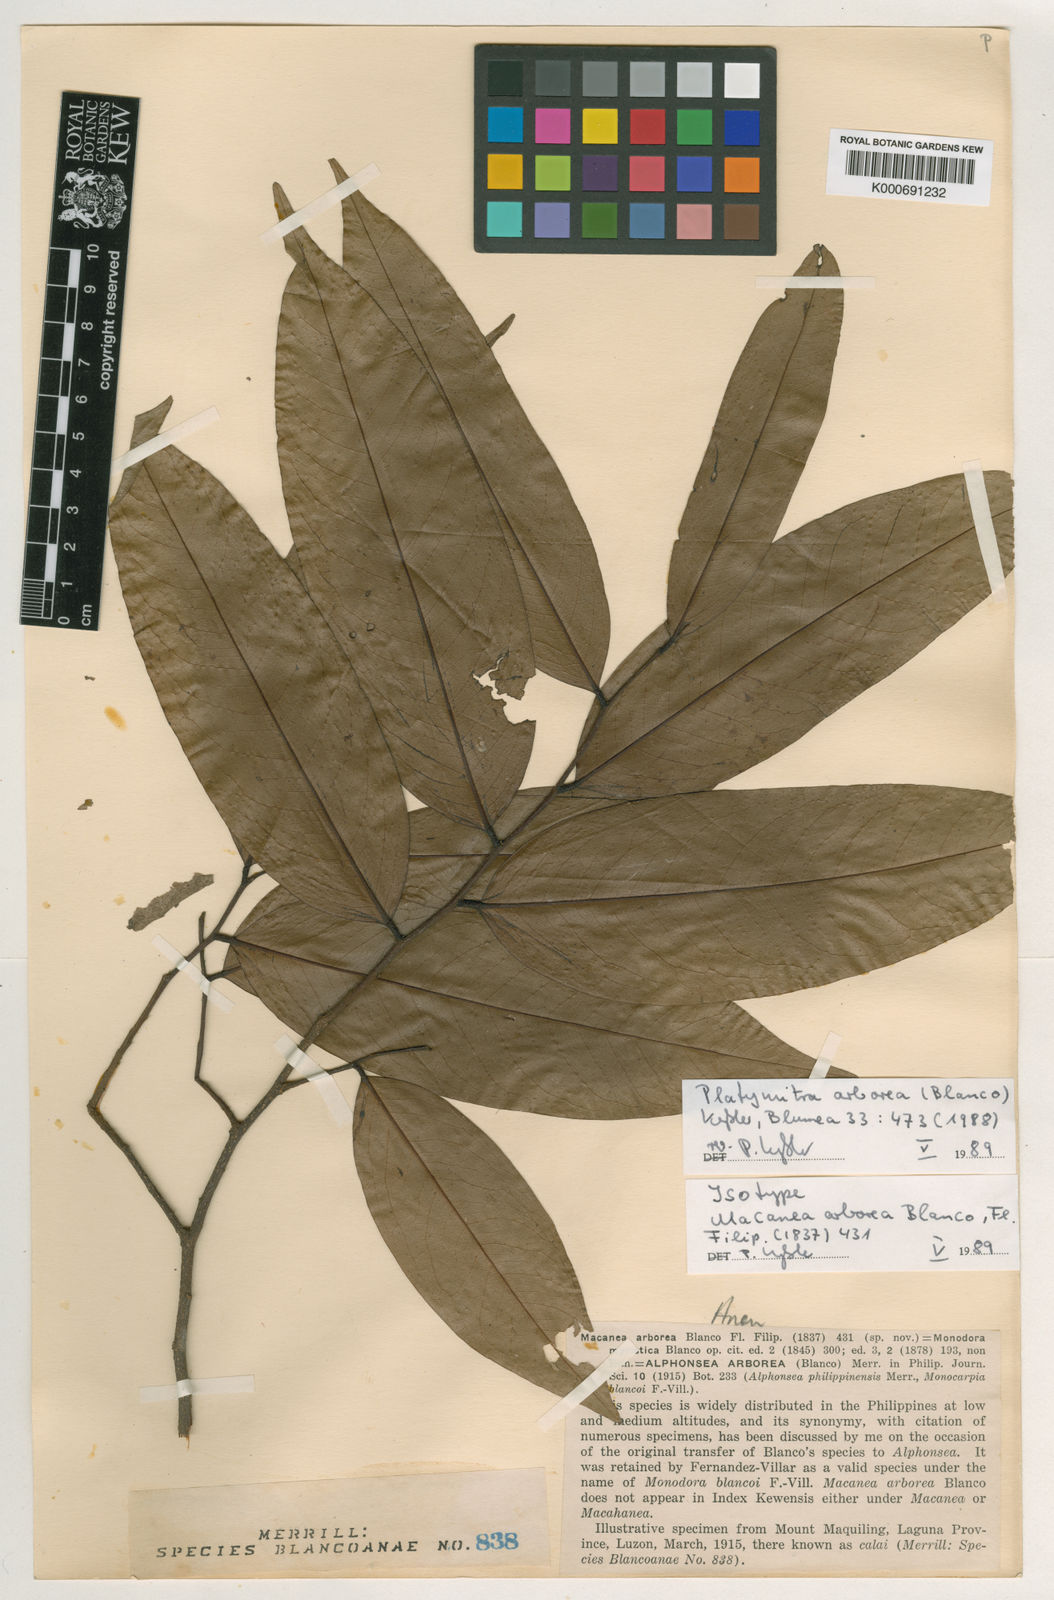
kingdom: Plantae
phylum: Tracheophyta
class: Magnoliopsida
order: Magnoliales
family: Annonaceae
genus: Platymitra
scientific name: Platymitra arborea
